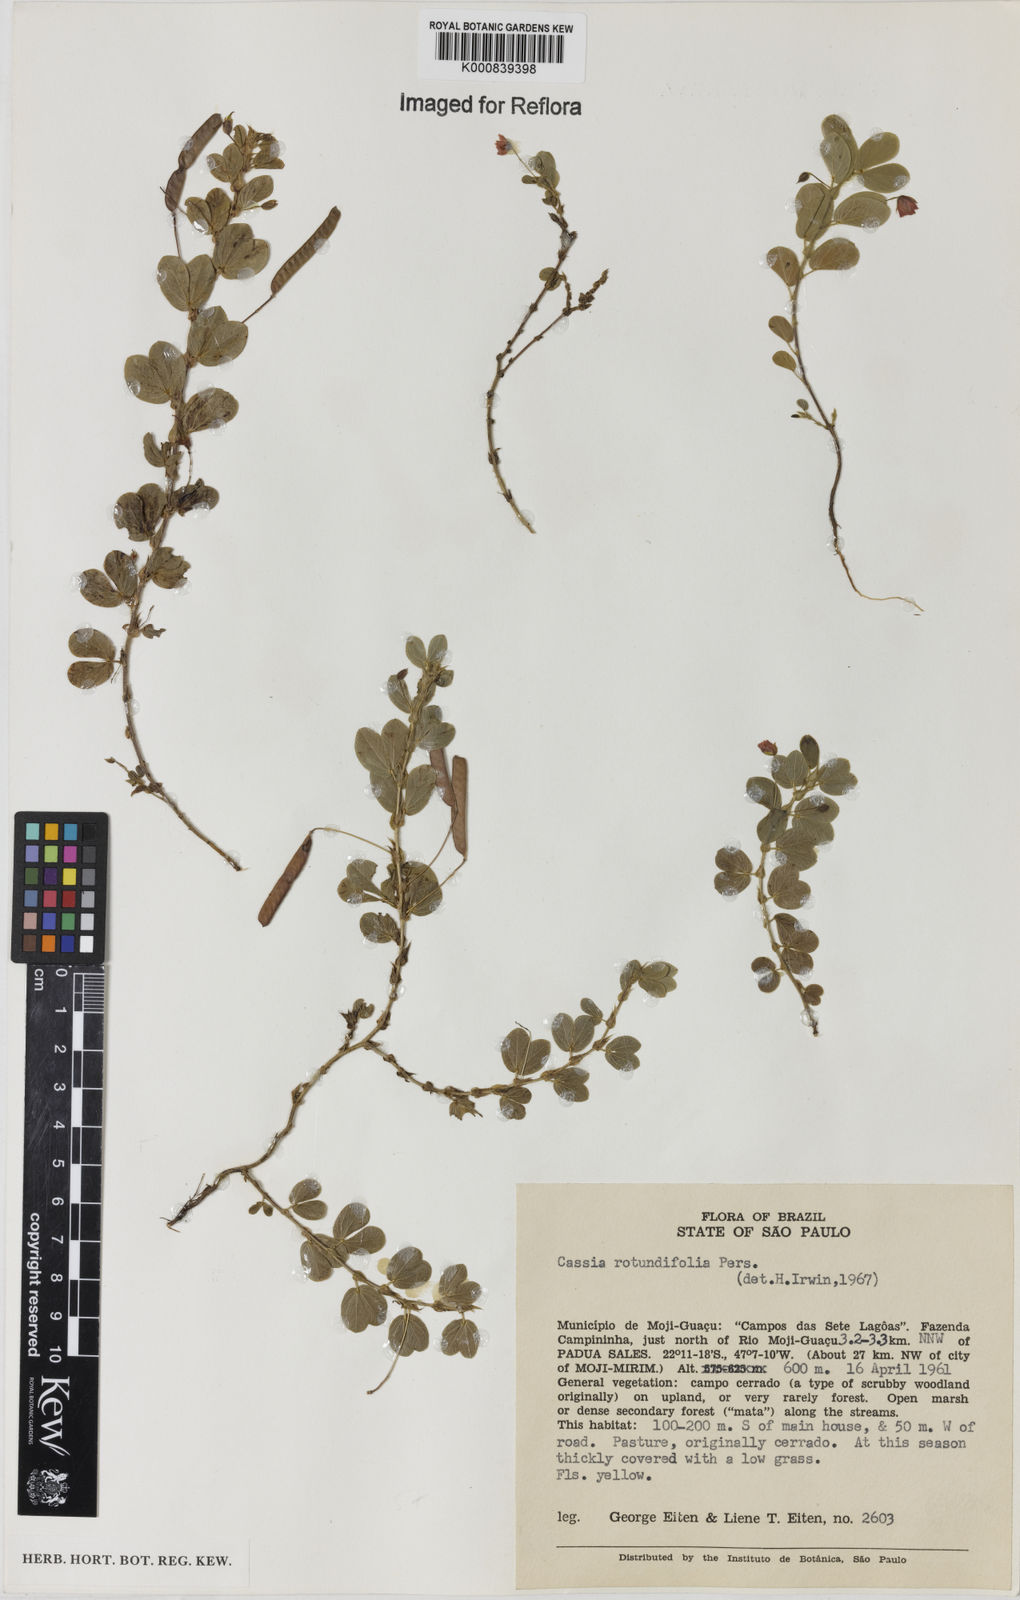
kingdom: Plantae
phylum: Tracheophyta
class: Magnoliopsida
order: Fabales
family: Fabaceae
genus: Chamaecrista
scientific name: Chamaecrista rotundifolia
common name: Round-leaf cassia
